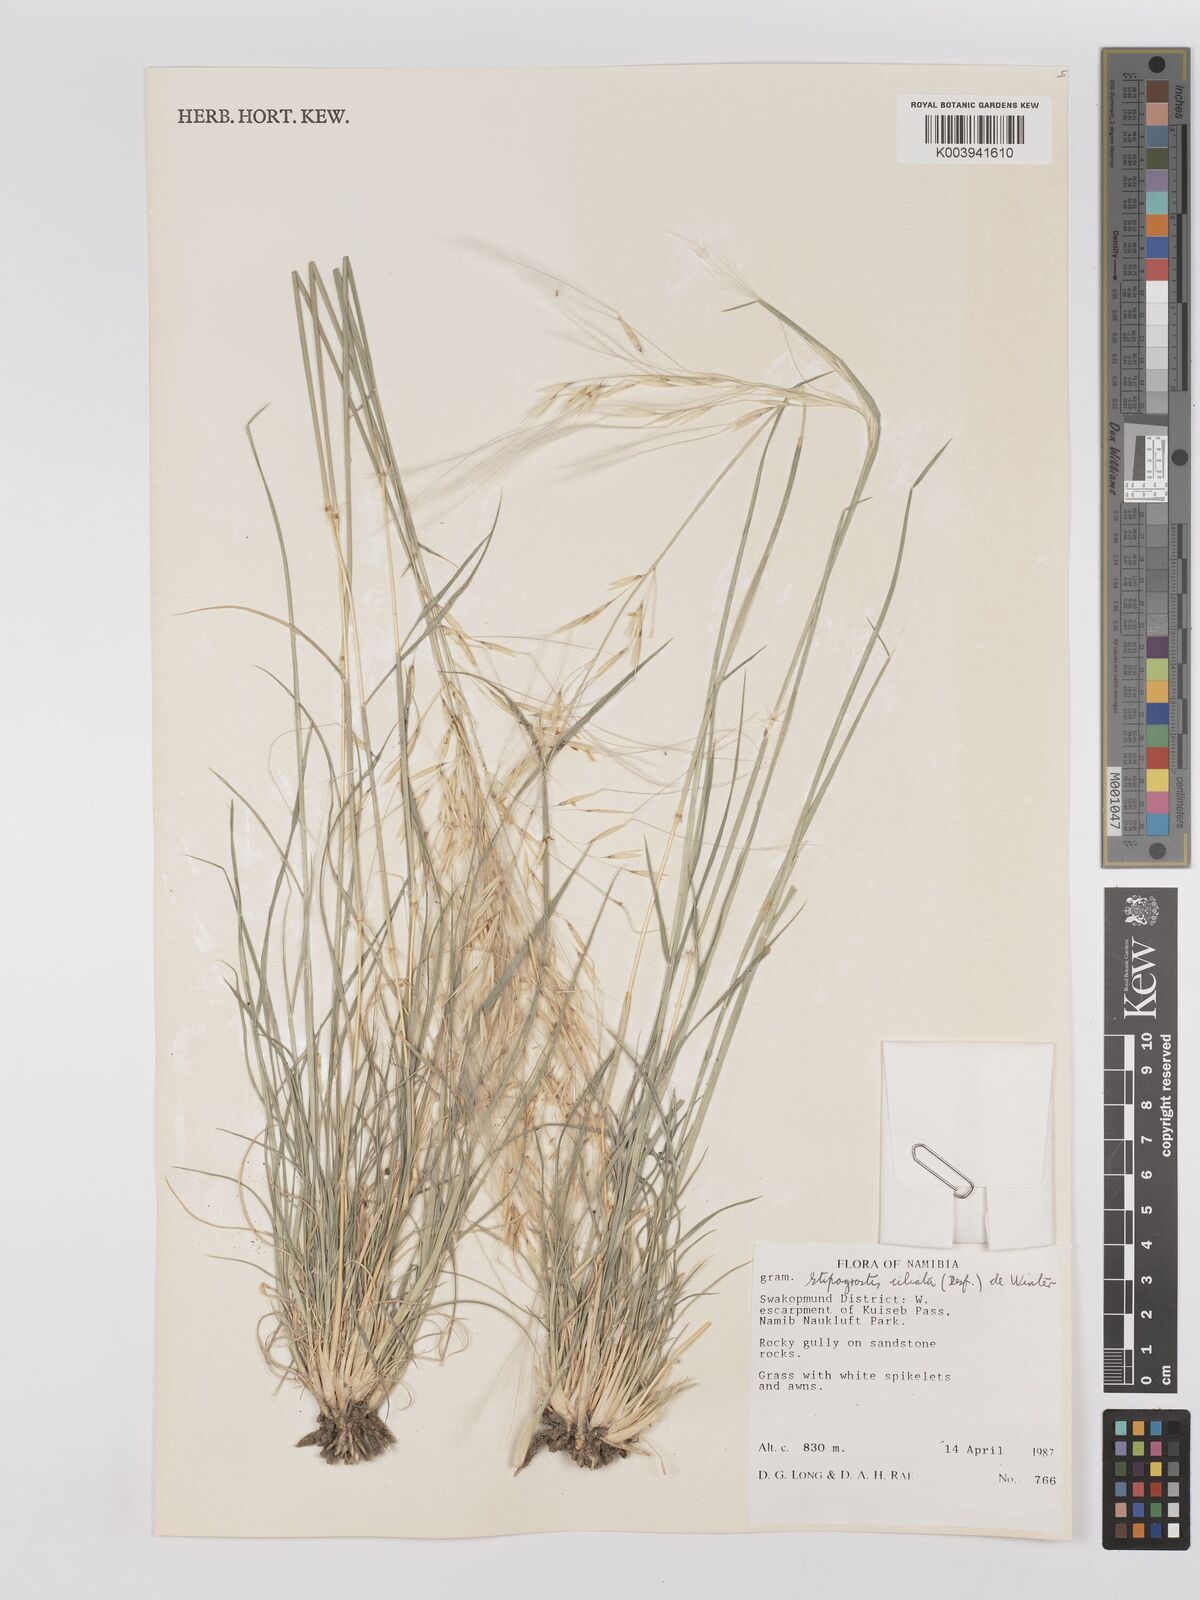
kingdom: Plantae
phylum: Tracheophyta
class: Liliopsida
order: Poales
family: Poaceae
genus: Stipagrostis
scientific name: Stipagrostis ciliata
